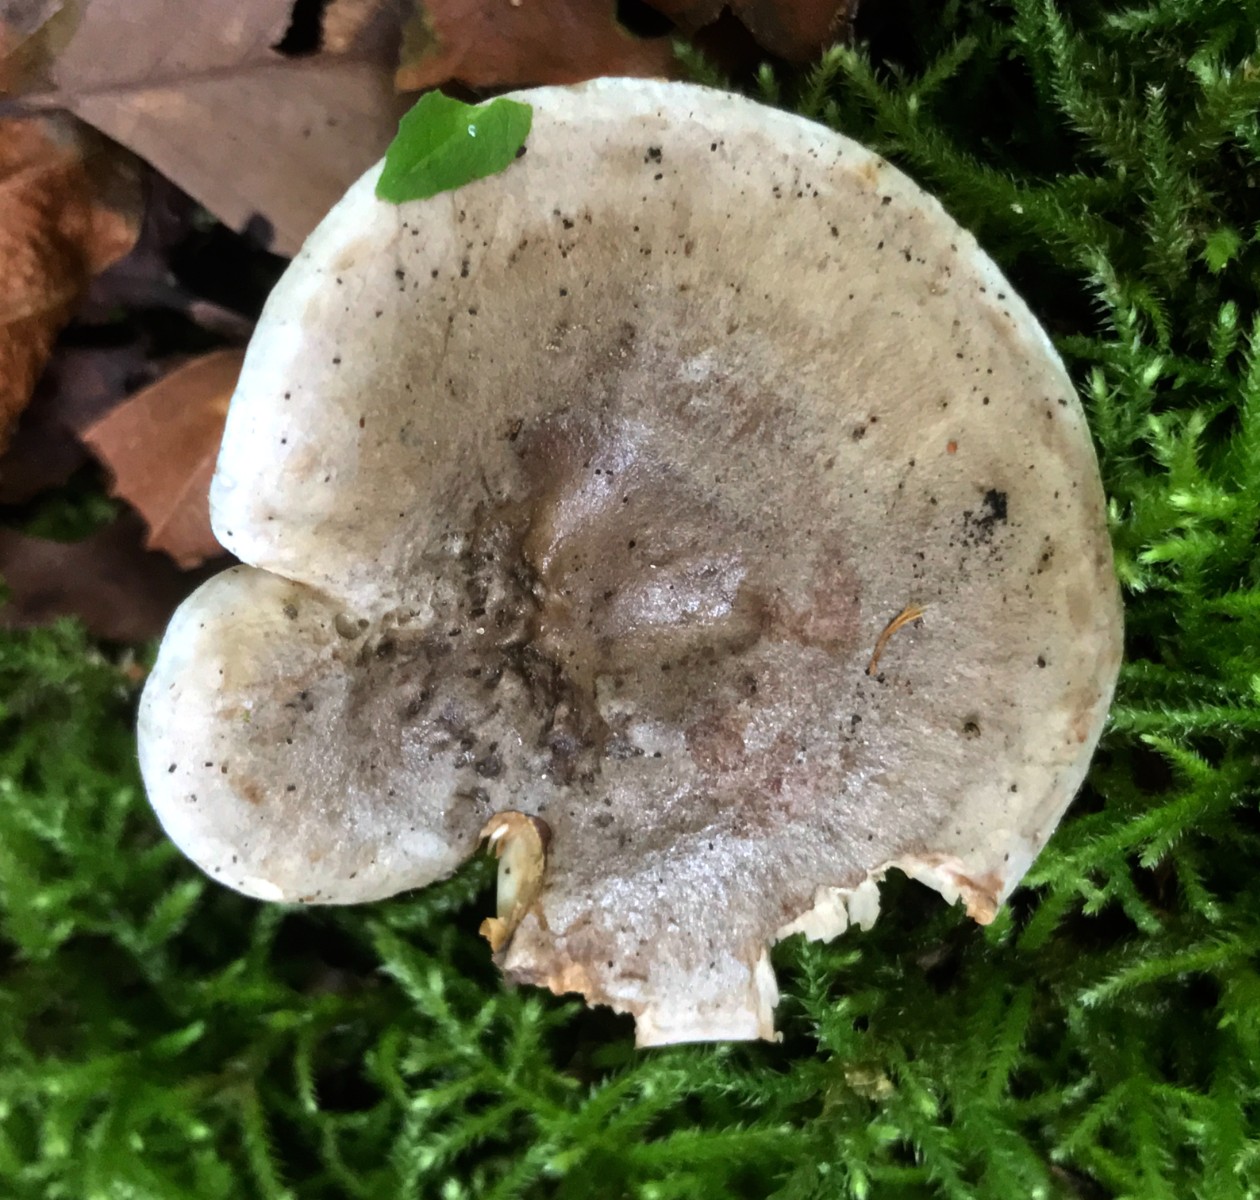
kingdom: Fungi
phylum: Basidiomycota
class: Agaricomycetes
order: Russulales
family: Russulaceae
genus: Lactarius
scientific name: Lactarius fluens
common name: lysrandet mælkehat
